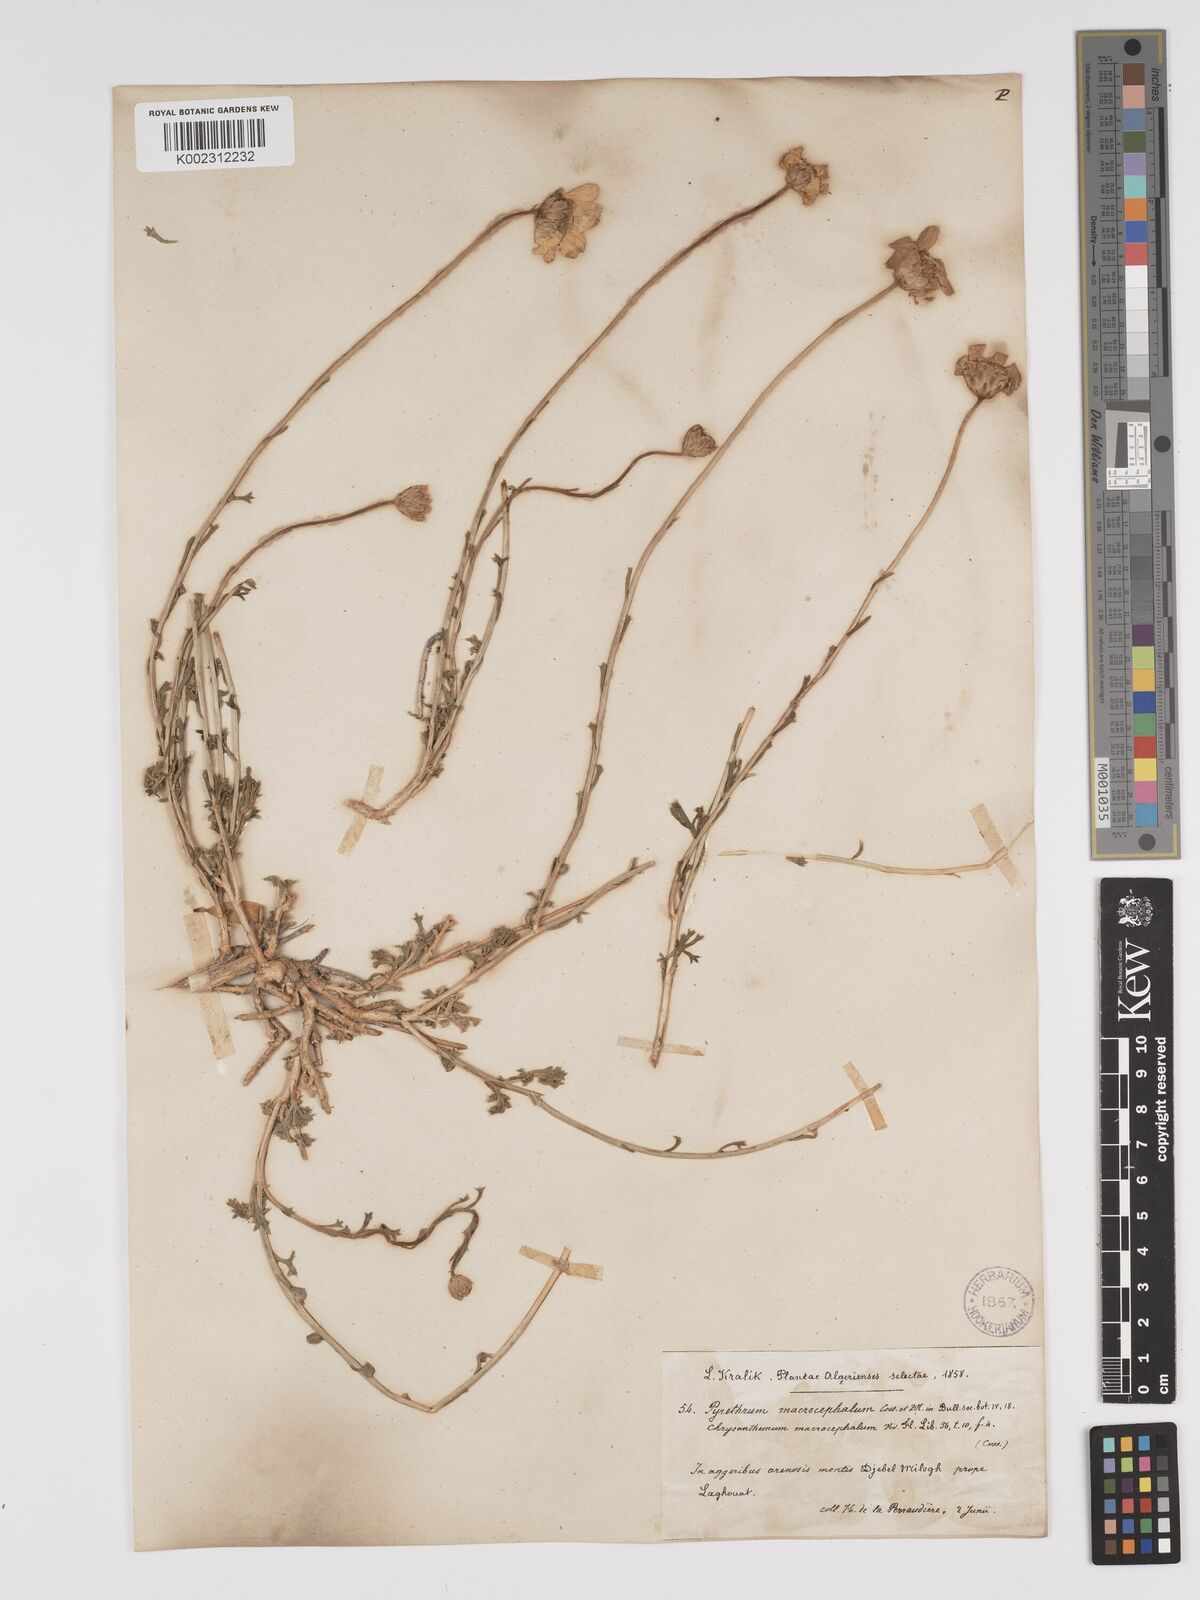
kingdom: Plantae
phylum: Tracheophyta
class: Magnoliopsida
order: Asterales
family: Asteraceae
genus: Tanacetum
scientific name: Tanacetum macrocephalum
